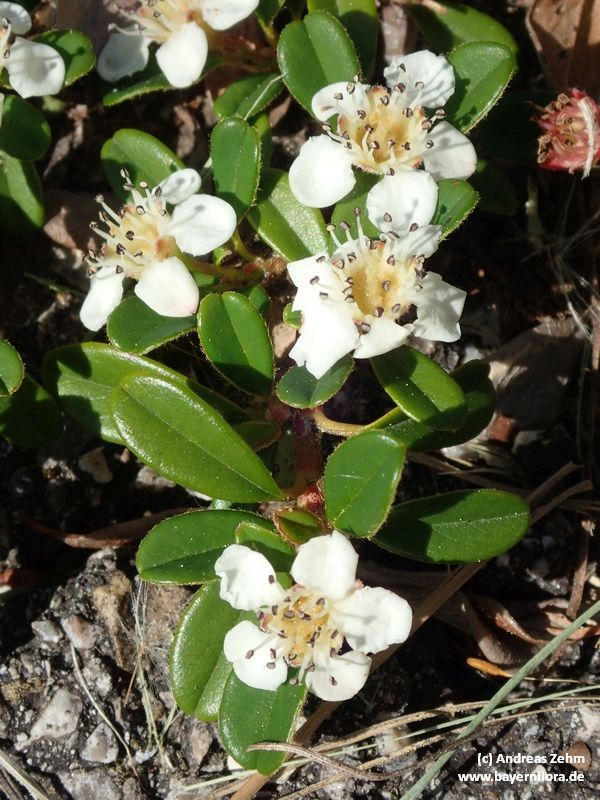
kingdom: Plantae
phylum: Tracheophyta
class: Magnoliopsida
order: Rosales
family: Rosaceae
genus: Cotoneaster
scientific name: Cotoneaster dammeri
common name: Bearberry cotoneaster
